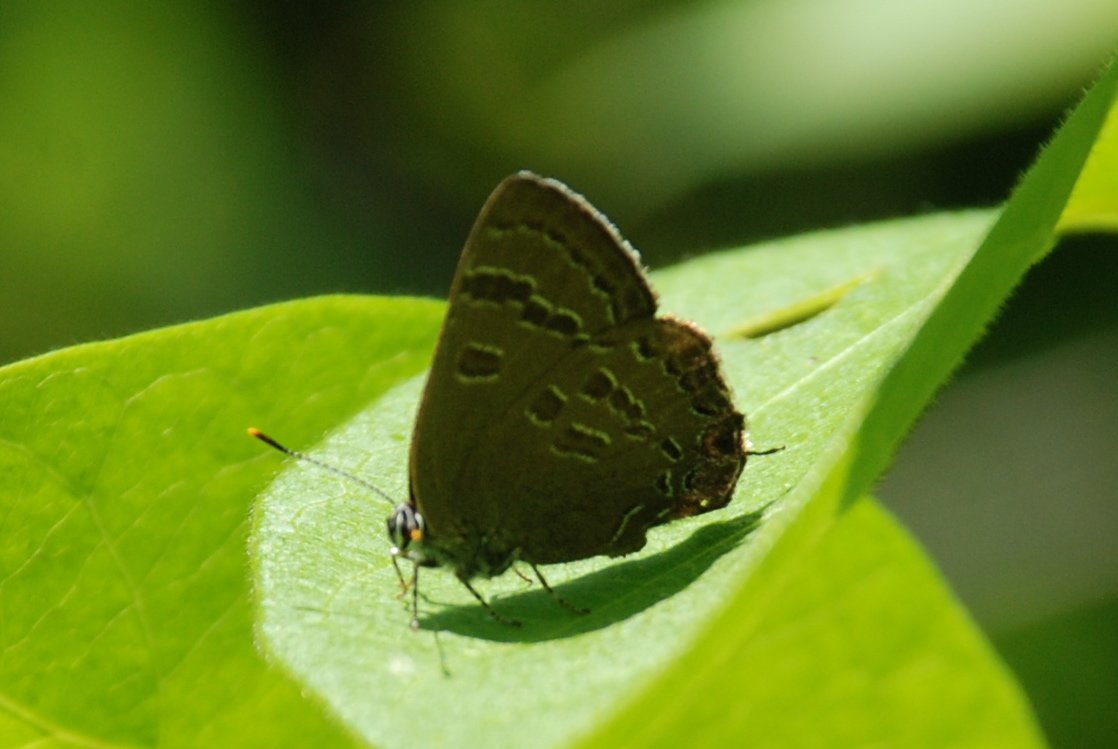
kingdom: Animalia
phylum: Arthropoda
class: Insecta
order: Lepidoptera
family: Lycaenidae
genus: Strymon
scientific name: Strymon caryaevorus
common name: Hickory Hairstreak
